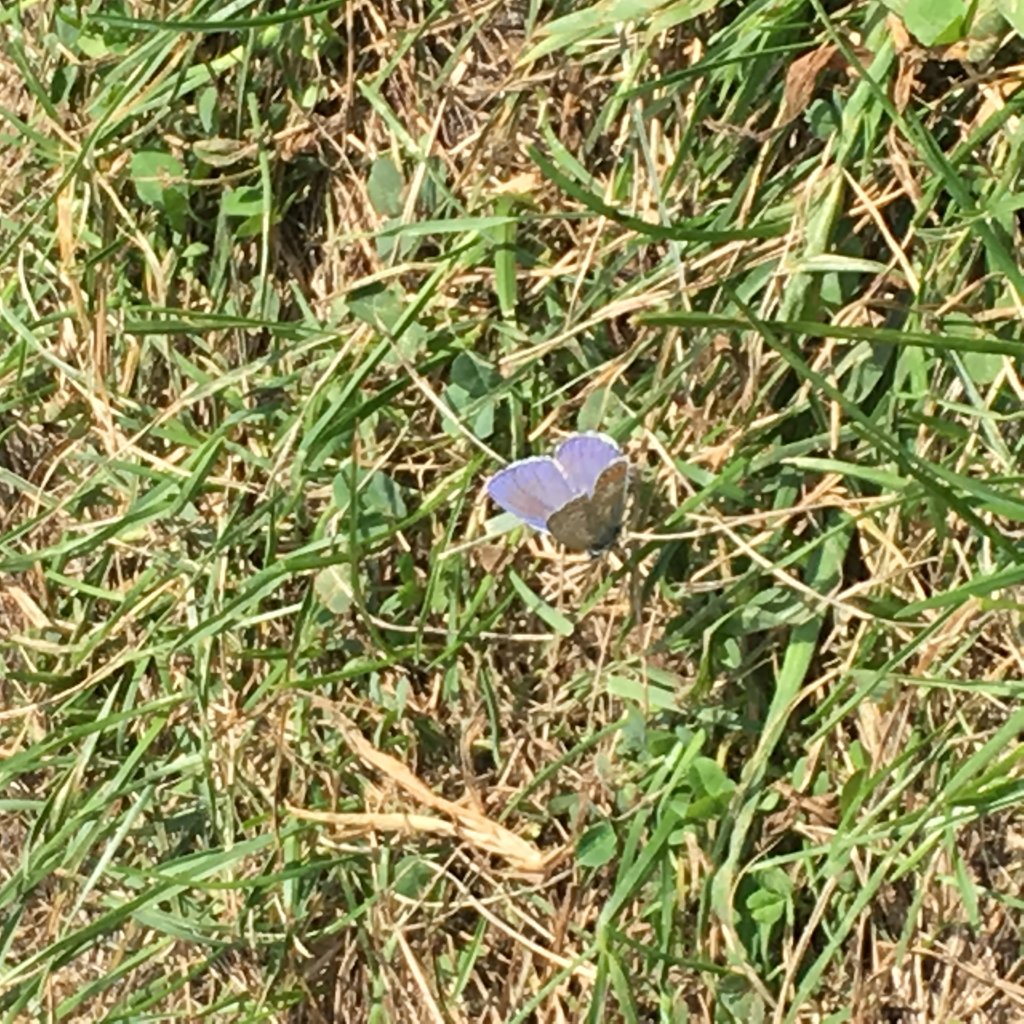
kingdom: Animalia
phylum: Arthropoda
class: Insecta
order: Lepidoptera
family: Lycaenidae
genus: Polyommatus
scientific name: Polyommatus icarus
